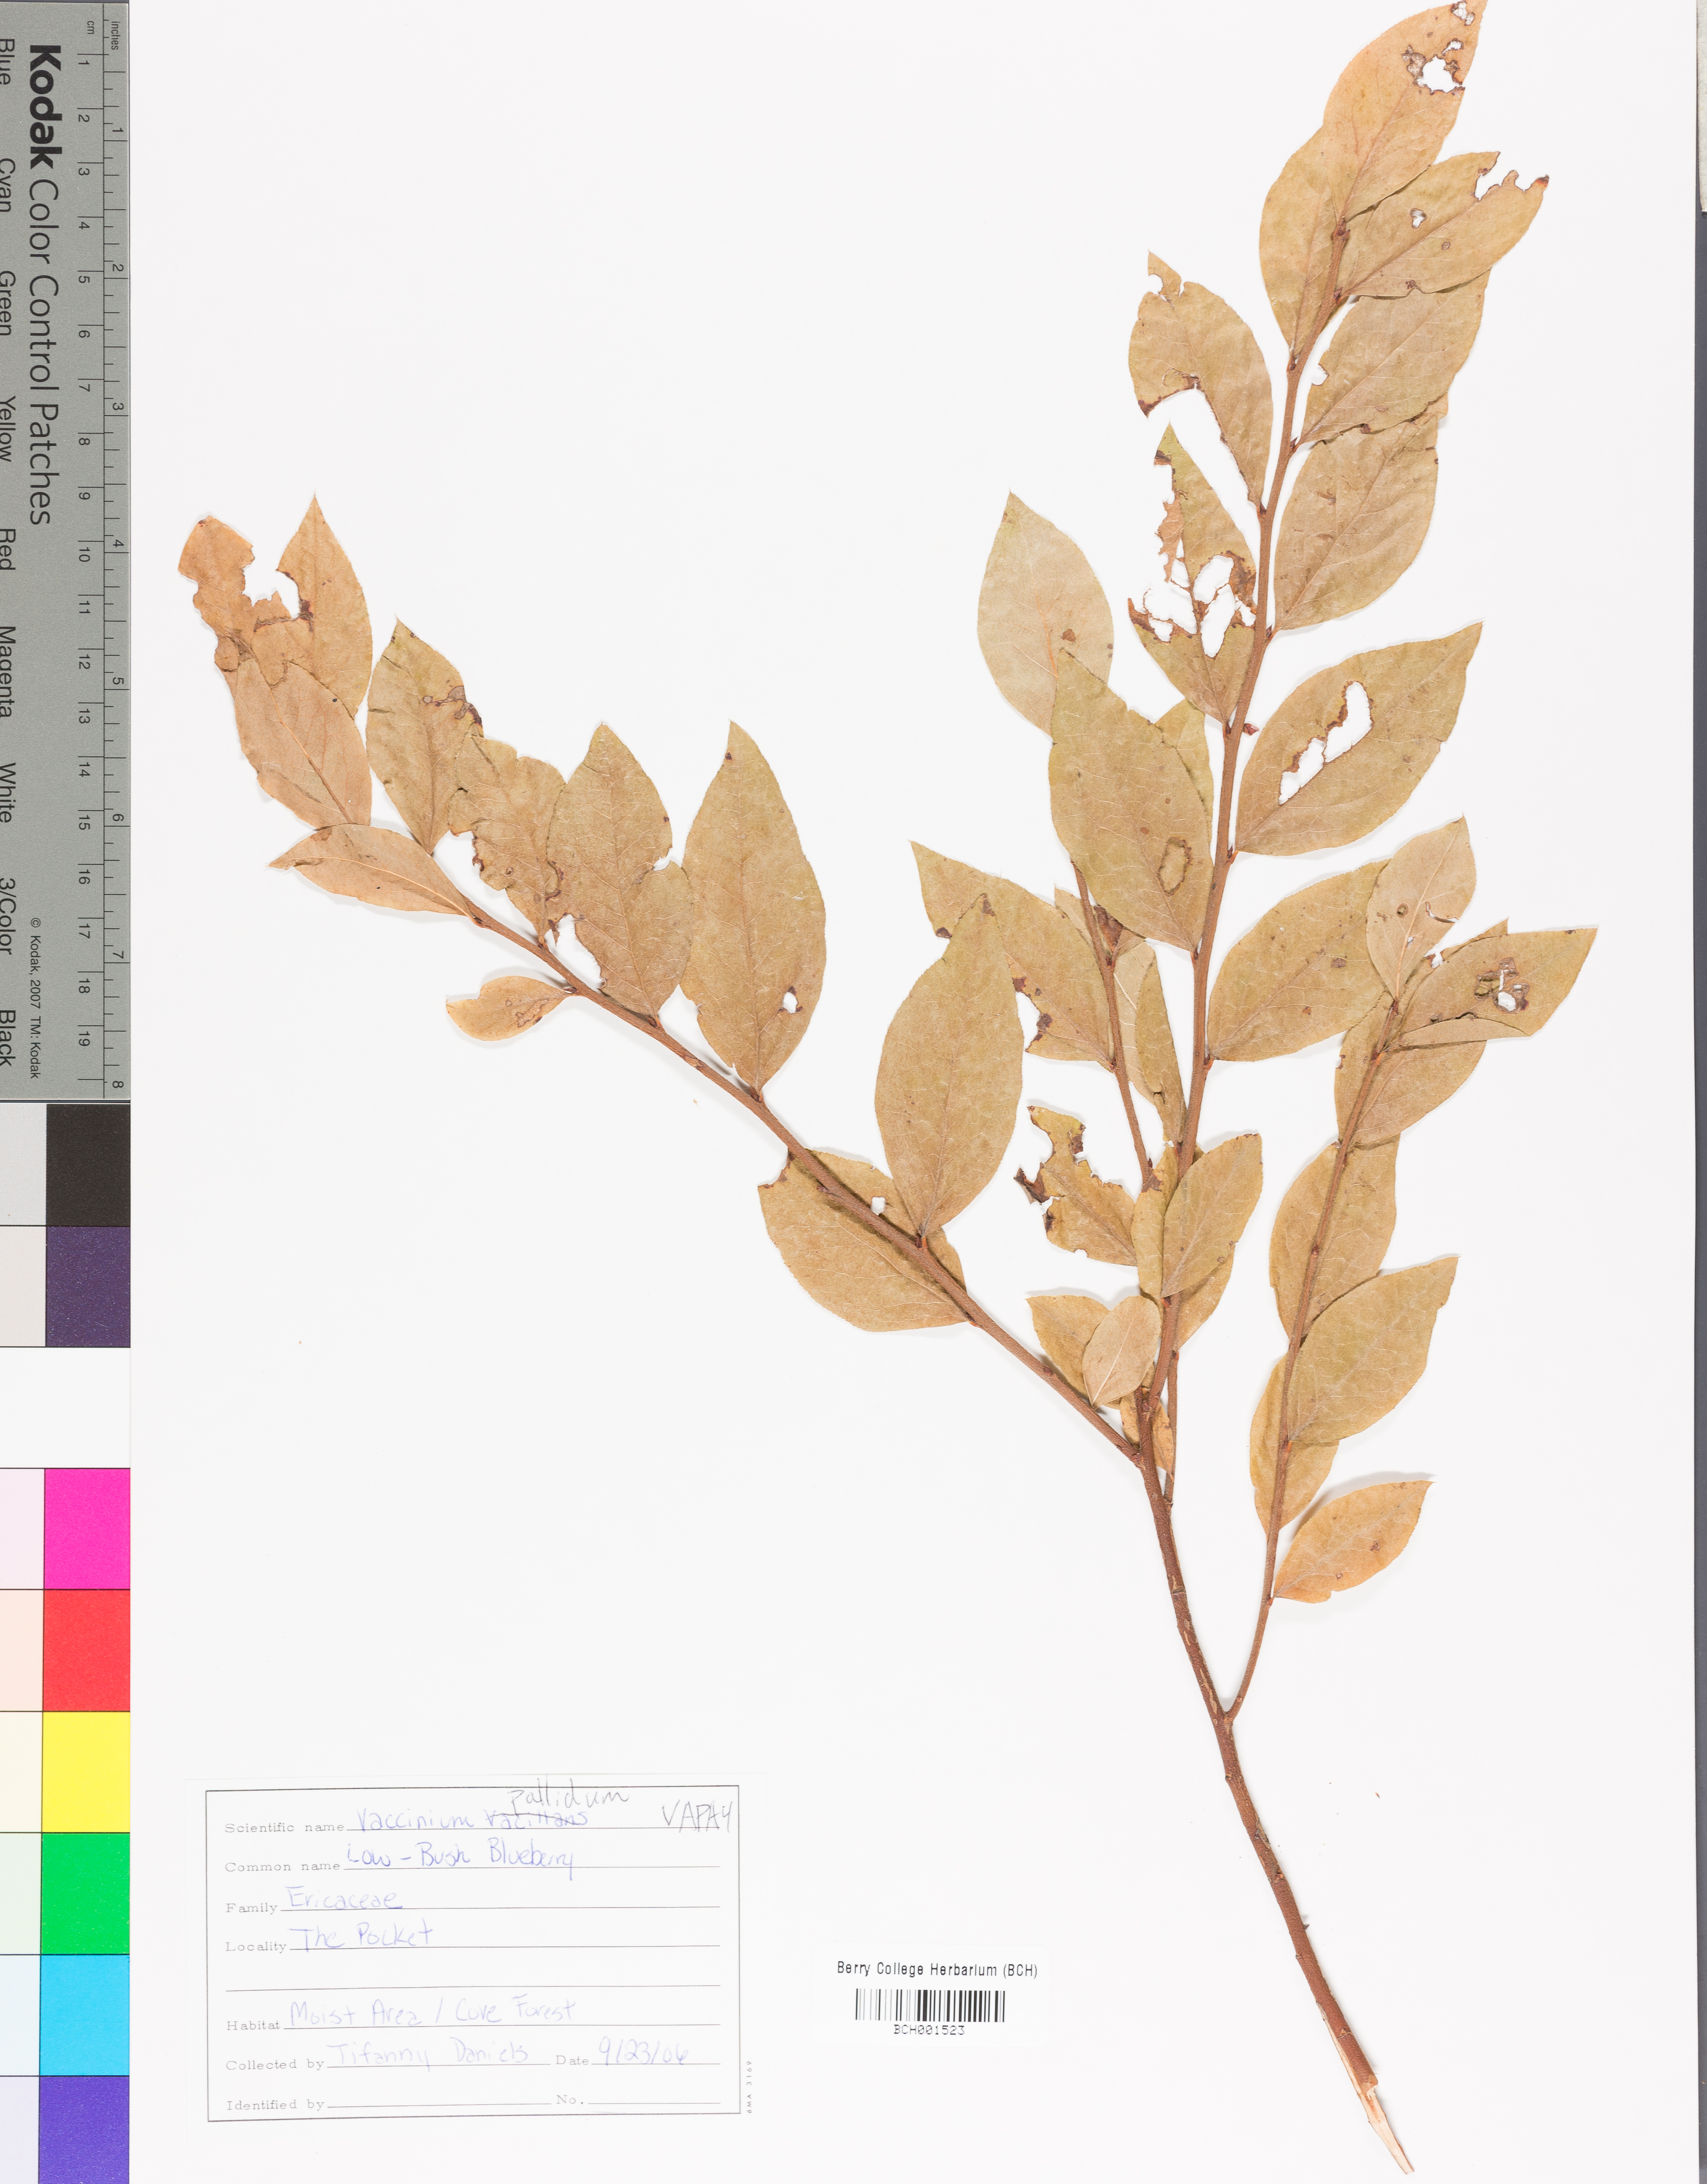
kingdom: Plantae
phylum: Tracheophyta
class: Magnoliopsida
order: Ericales
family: Ericaceae
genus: Vaccinium
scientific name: Vaccinium pallidum
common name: Blue ridge blueberry
